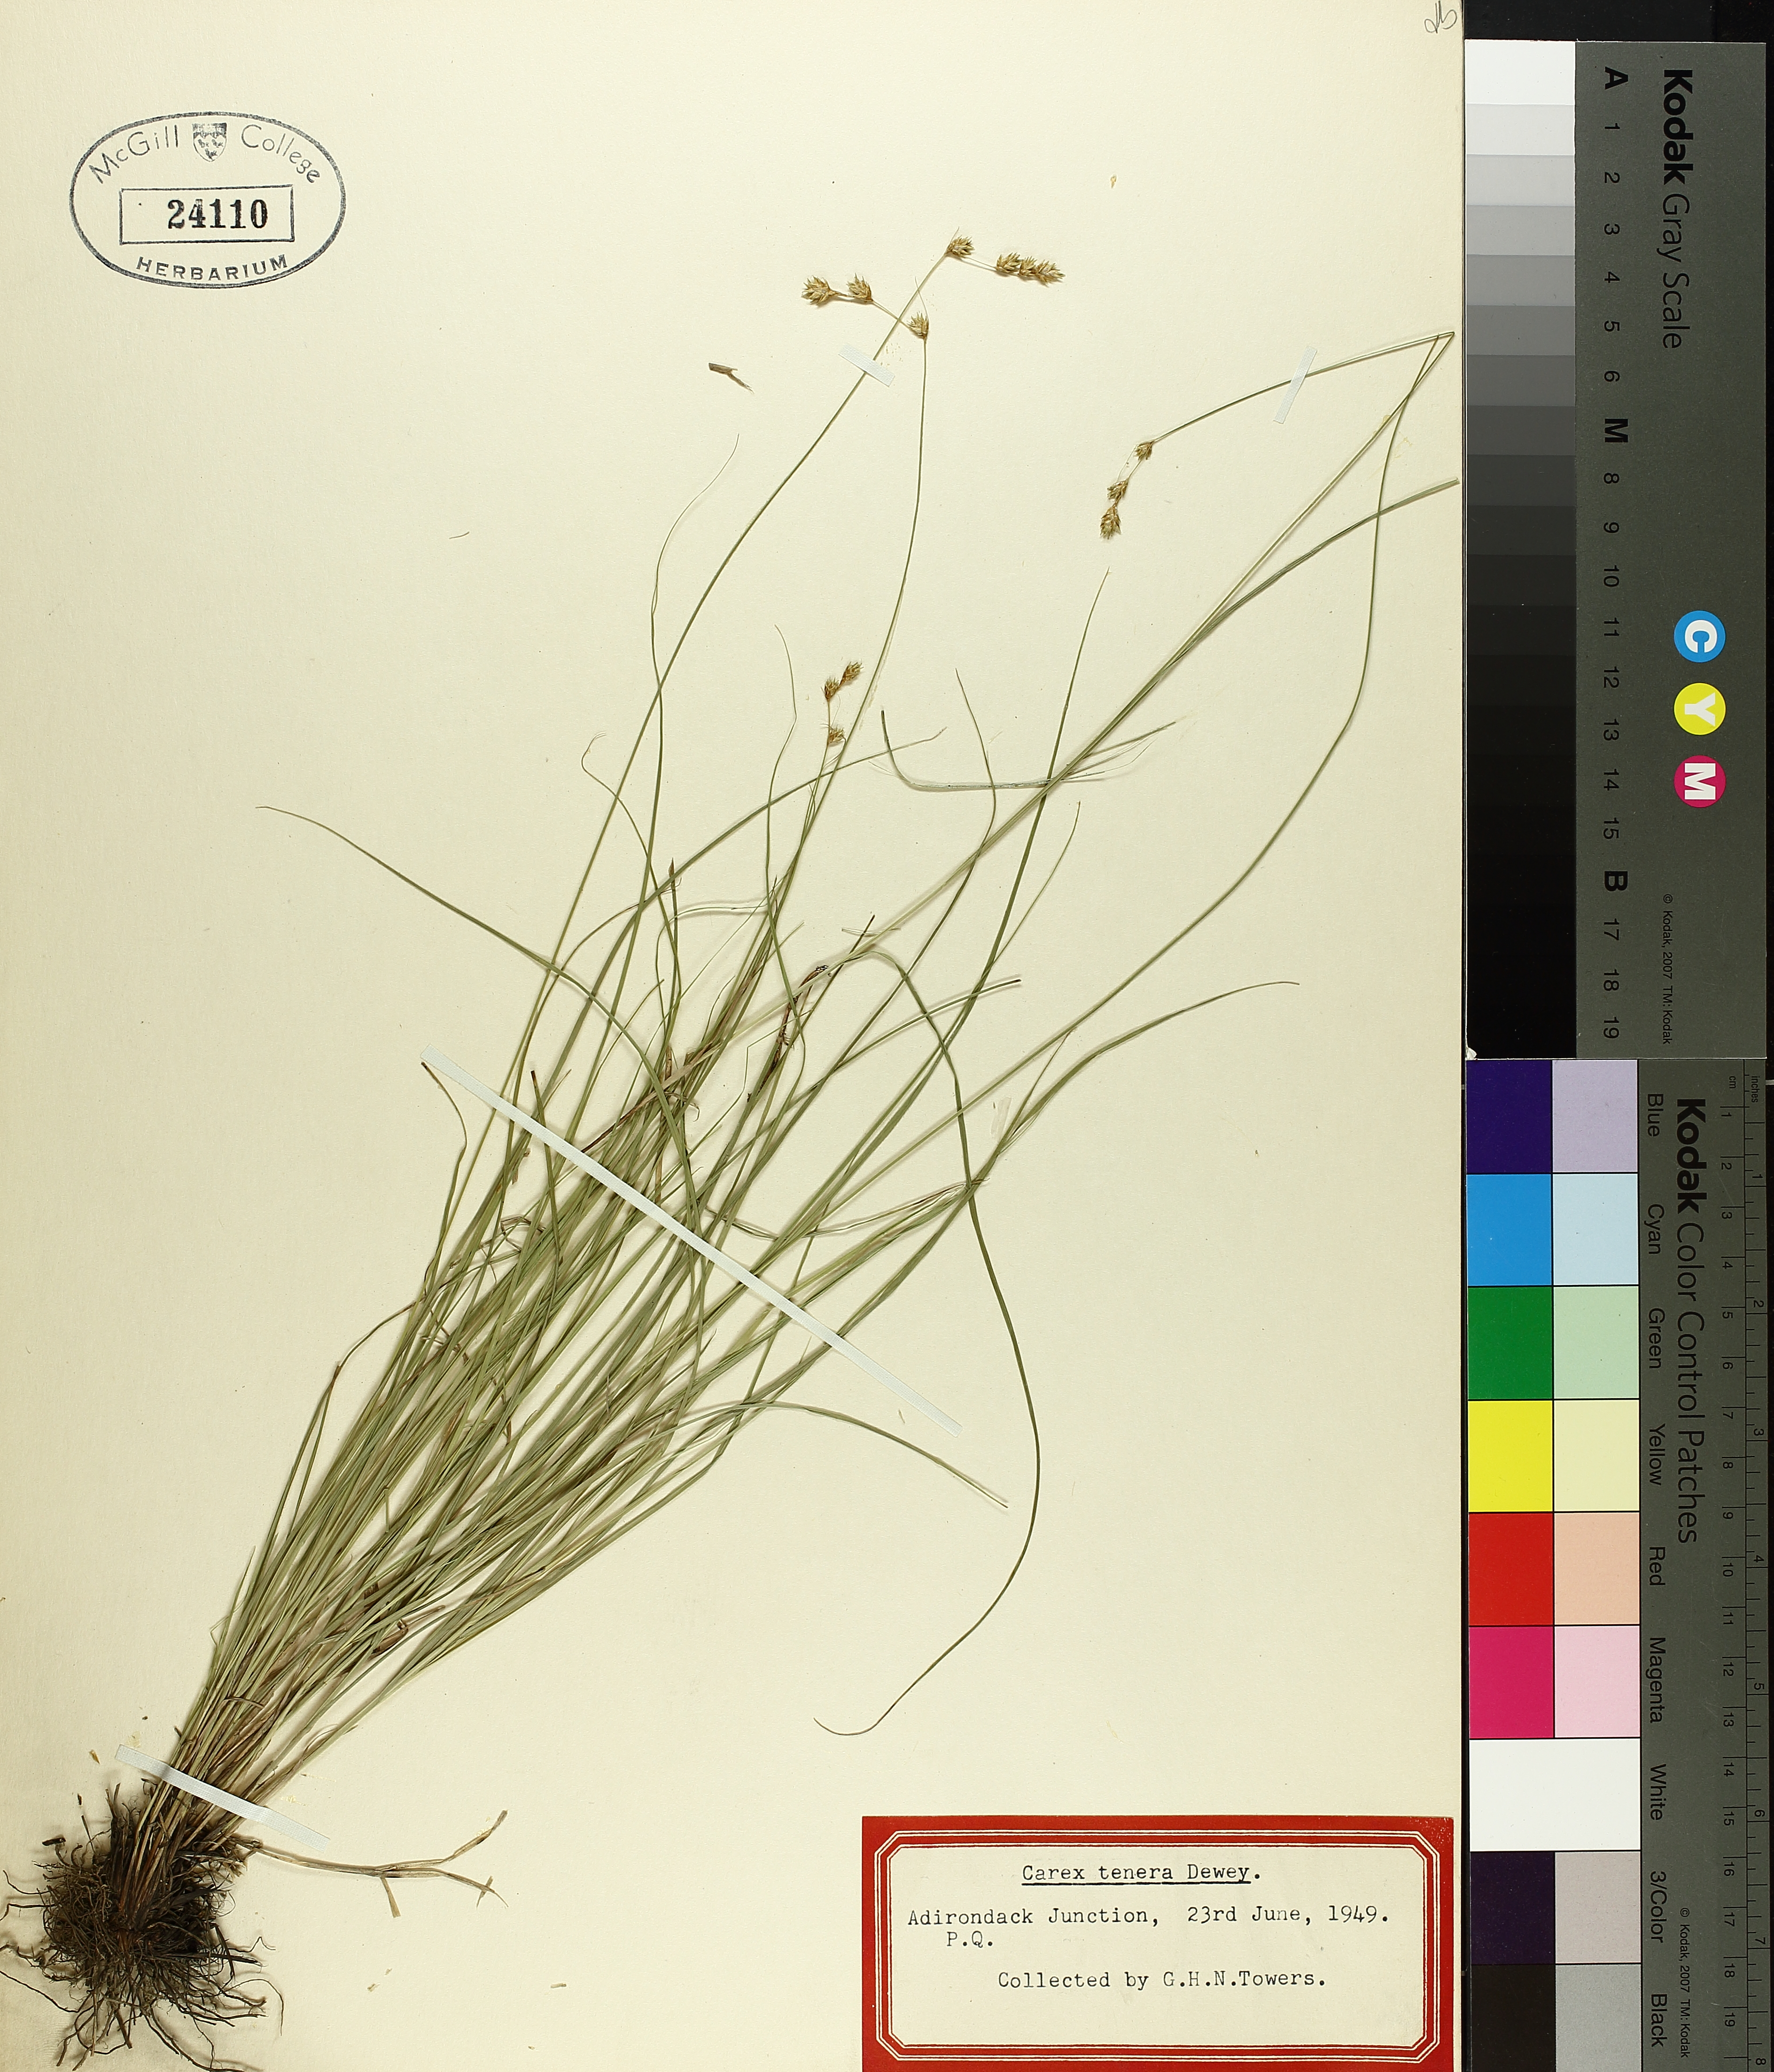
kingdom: Plantae
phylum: Tracheophyta
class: Liliopsida
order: Poales
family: Cyperaceae
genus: Carex
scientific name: Carex tenera
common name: Broad-fruited sedge
